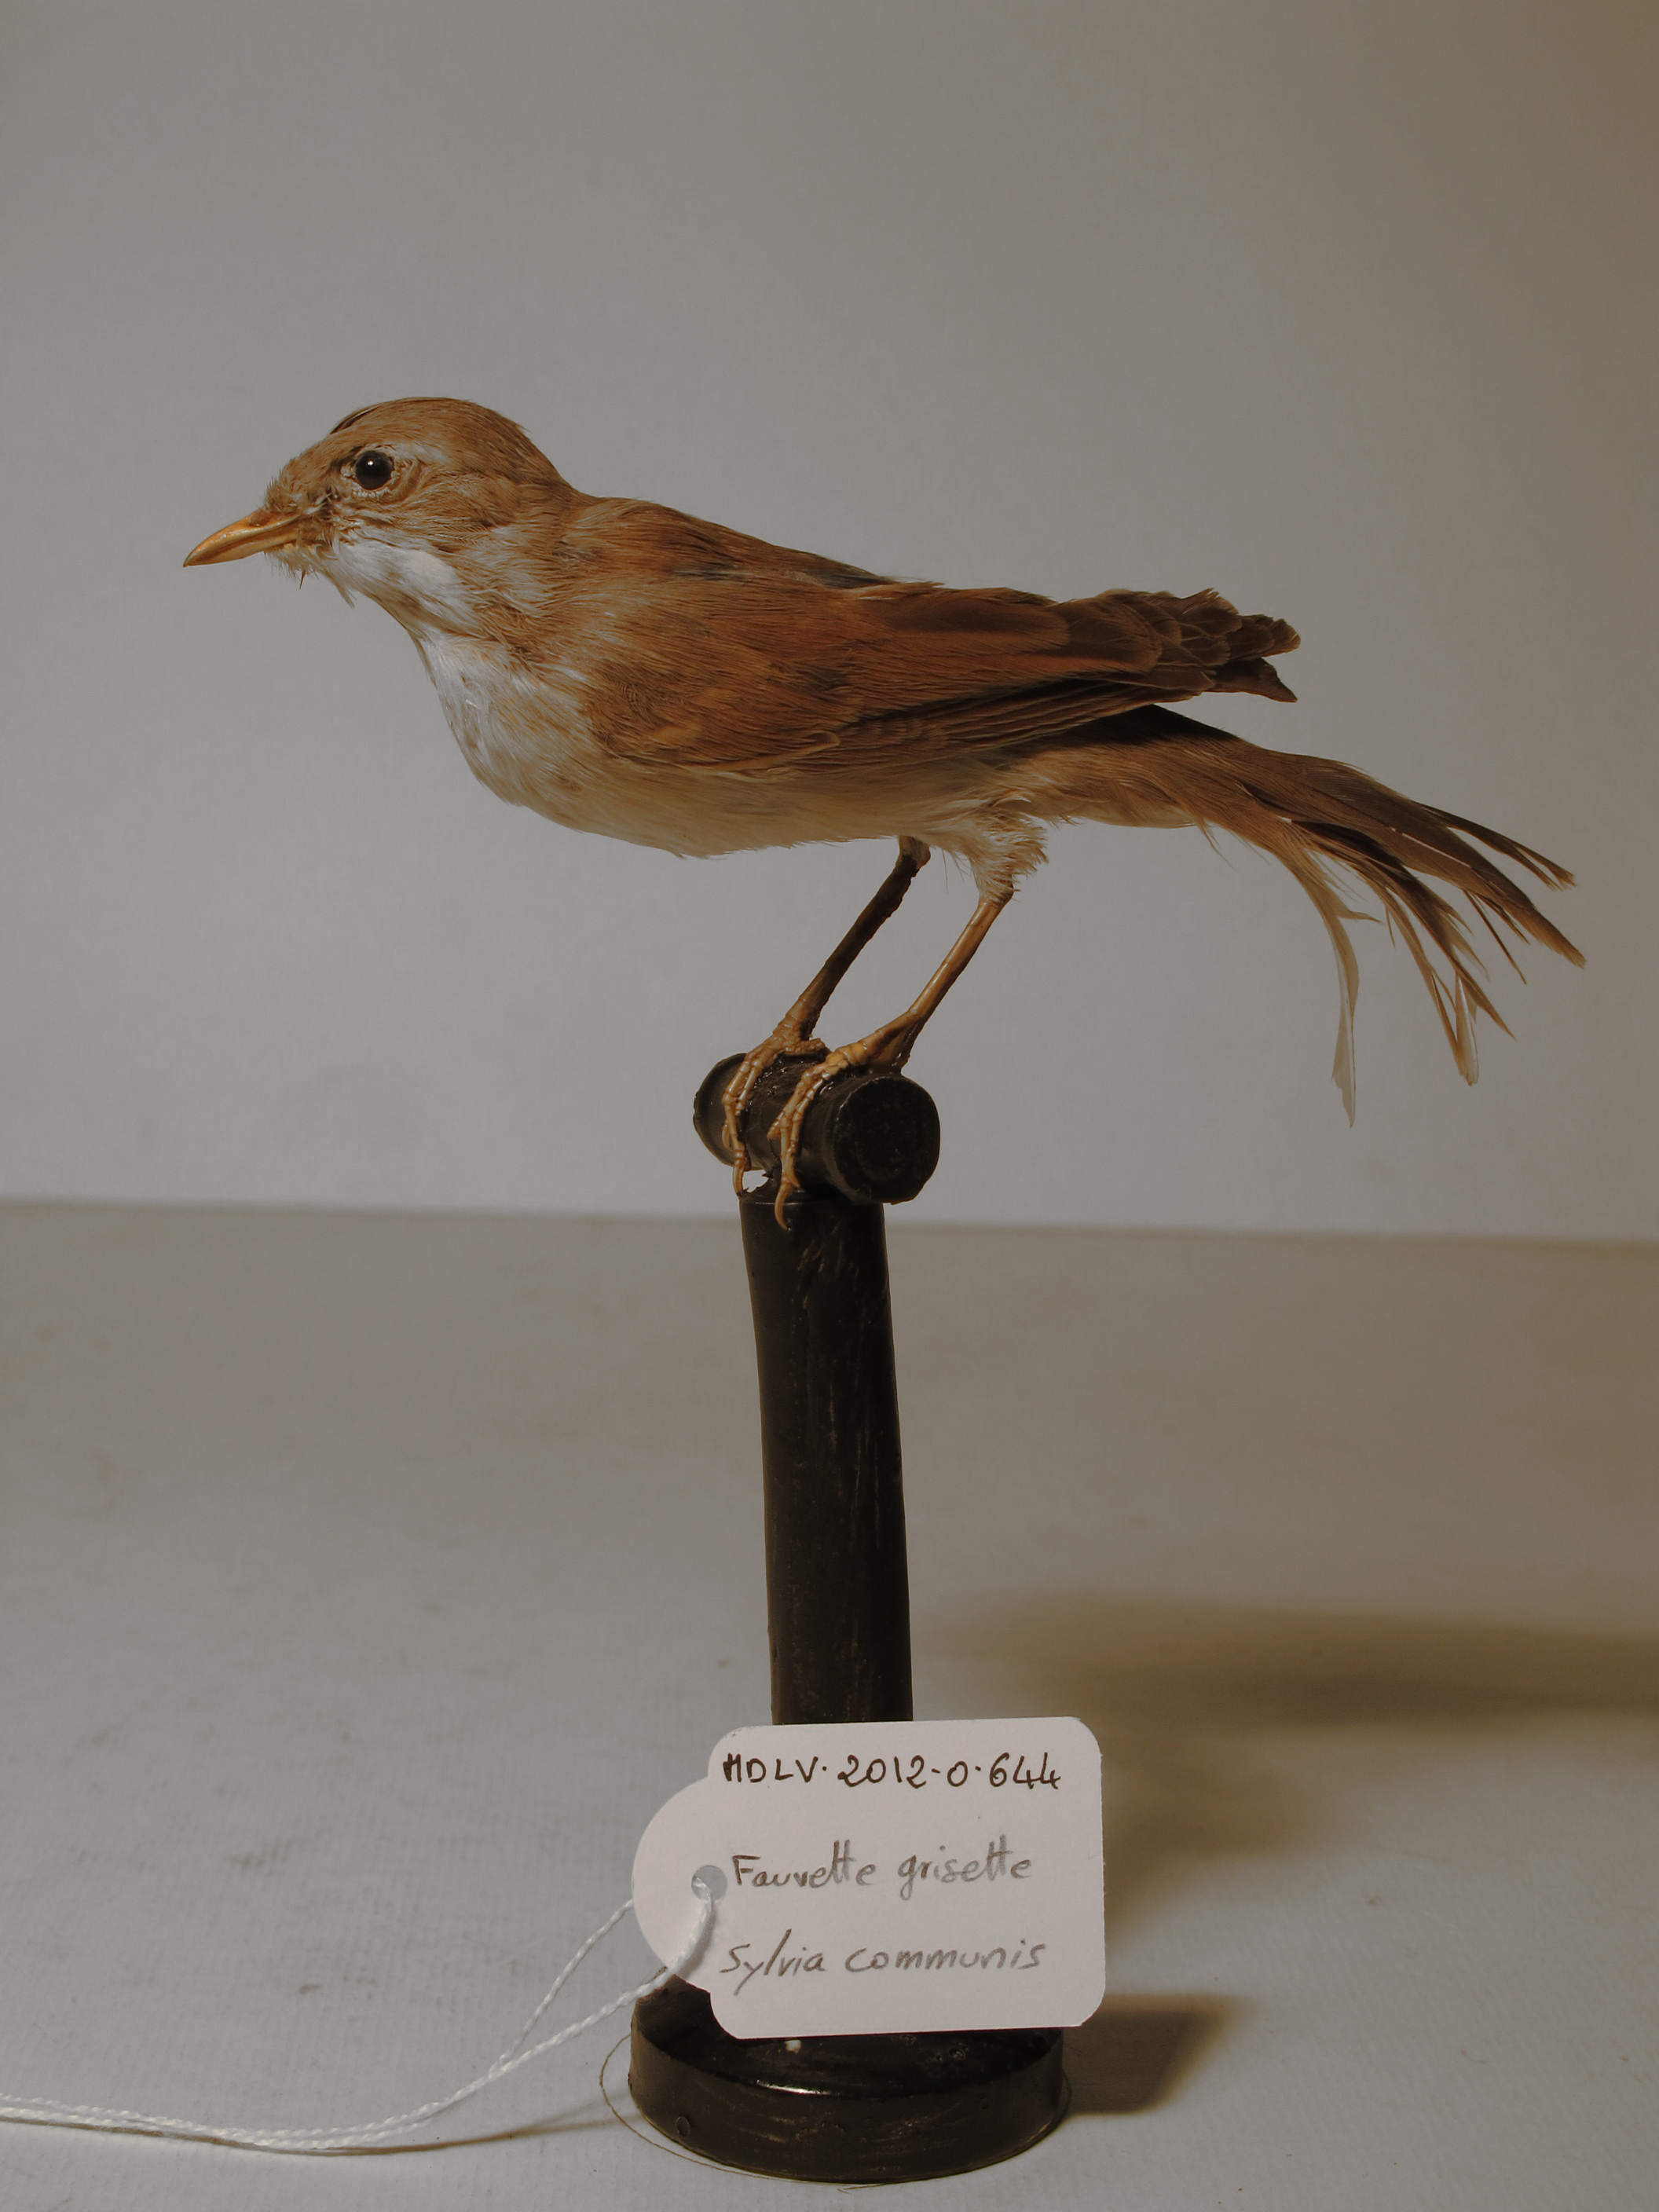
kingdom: Animalia
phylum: Chordata
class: Aves
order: Passeriformes
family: Sylviidae
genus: Sylvia
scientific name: Sylvia communis
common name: Common Whitethroat
